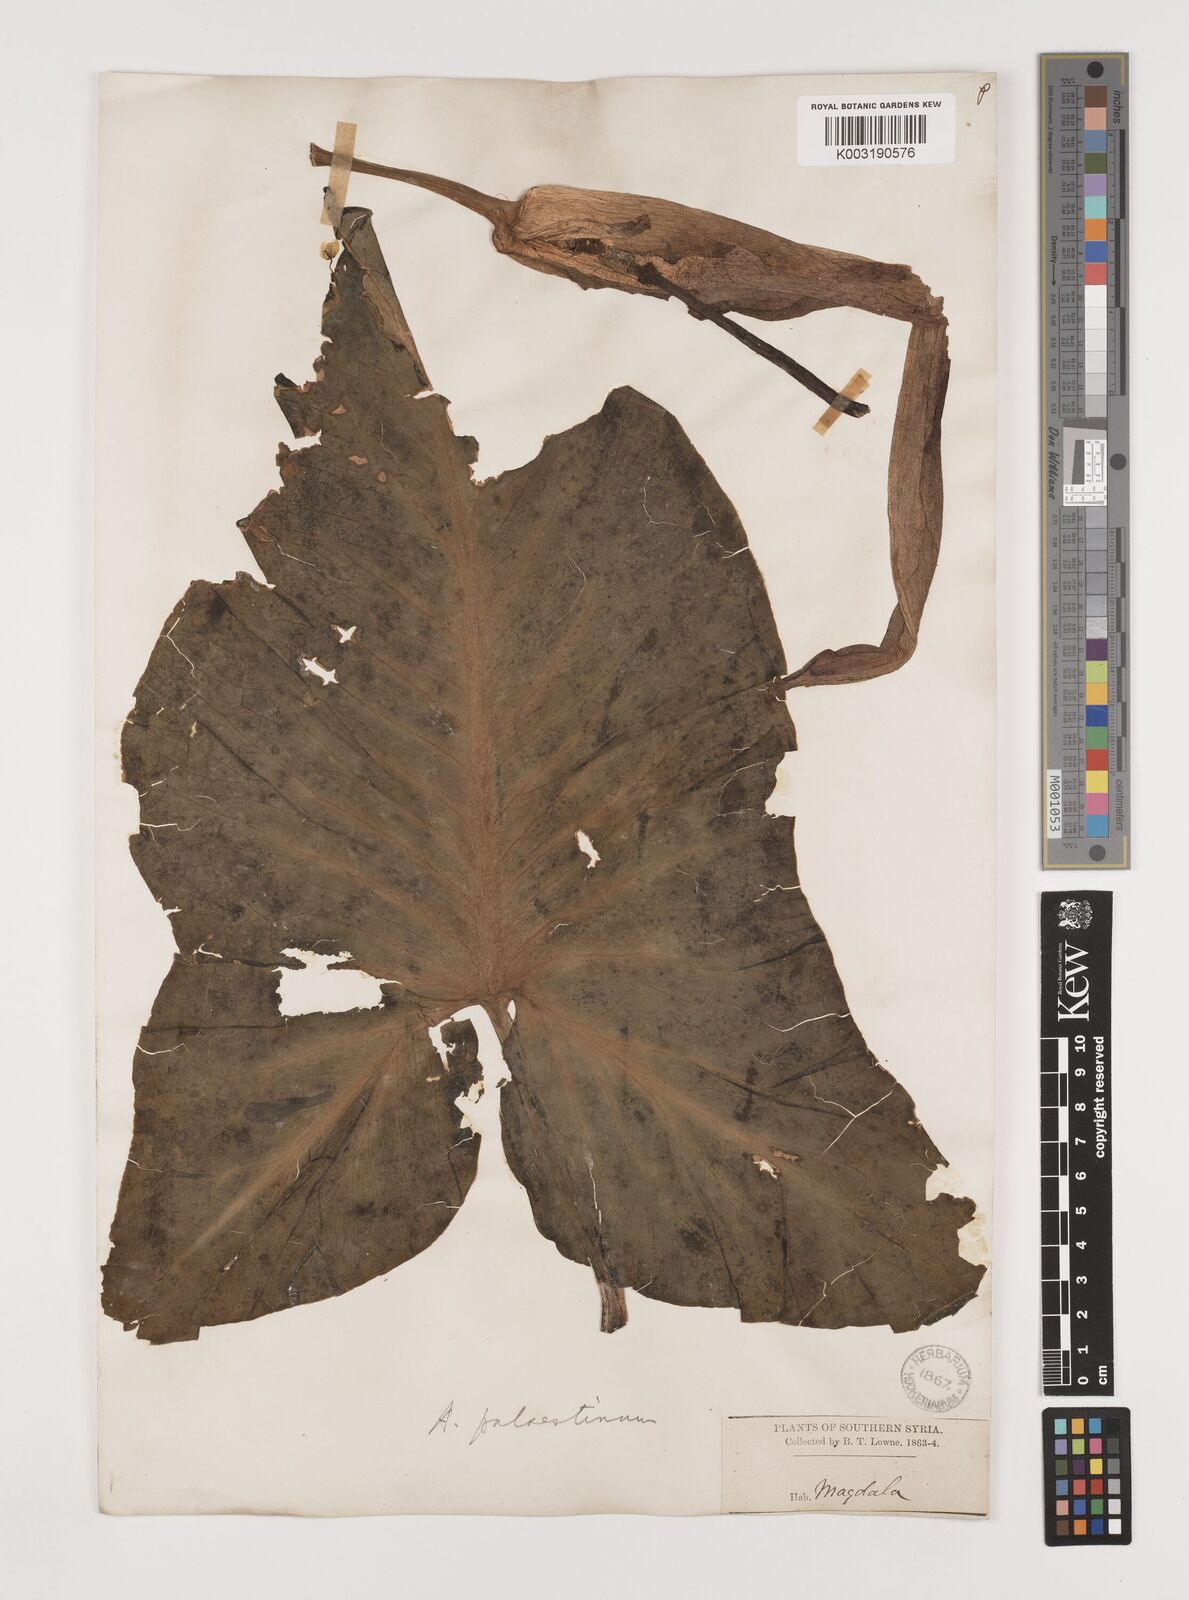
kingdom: Plantae
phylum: Tracheophyta
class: Liliopsida
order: Alismatales
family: Araceae
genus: Arum
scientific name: Arum palaestinum
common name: Solomon's lily
